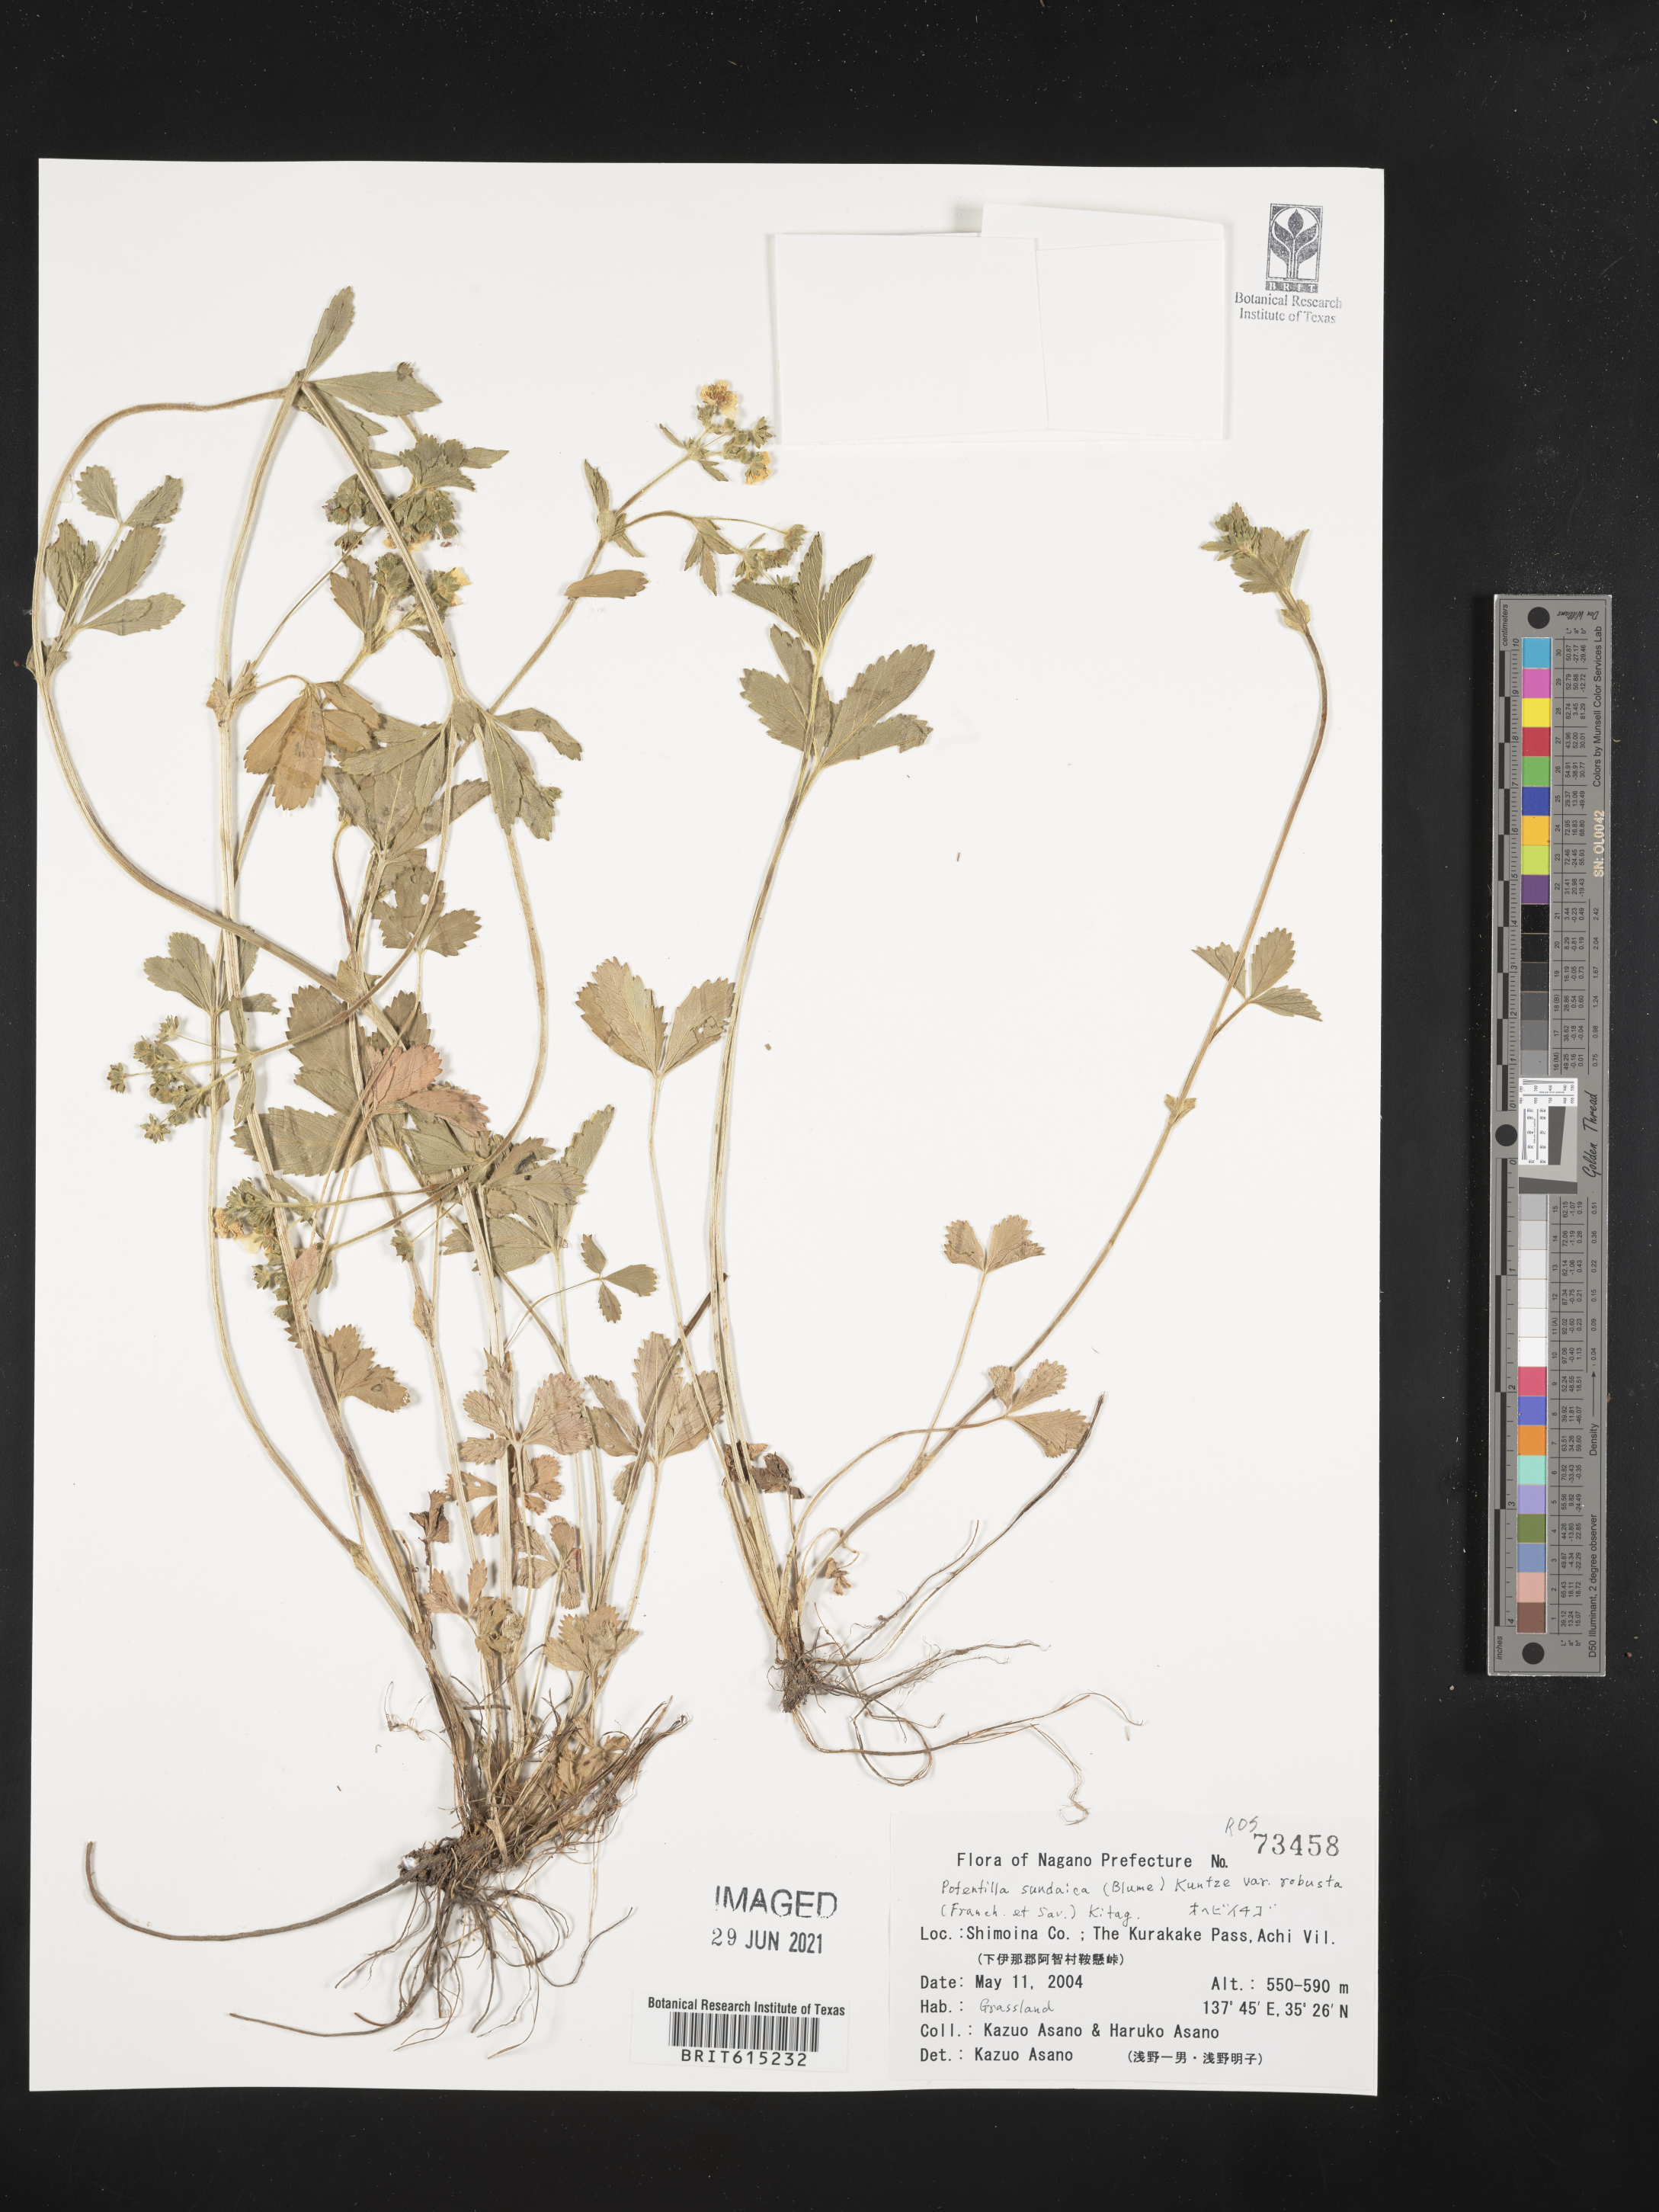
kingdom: Plantae
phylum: Tracheophyta
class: Magnoliopsida
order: Rosales
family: Rosaceae
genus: Potentilla
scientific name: Potentilla sundaica
